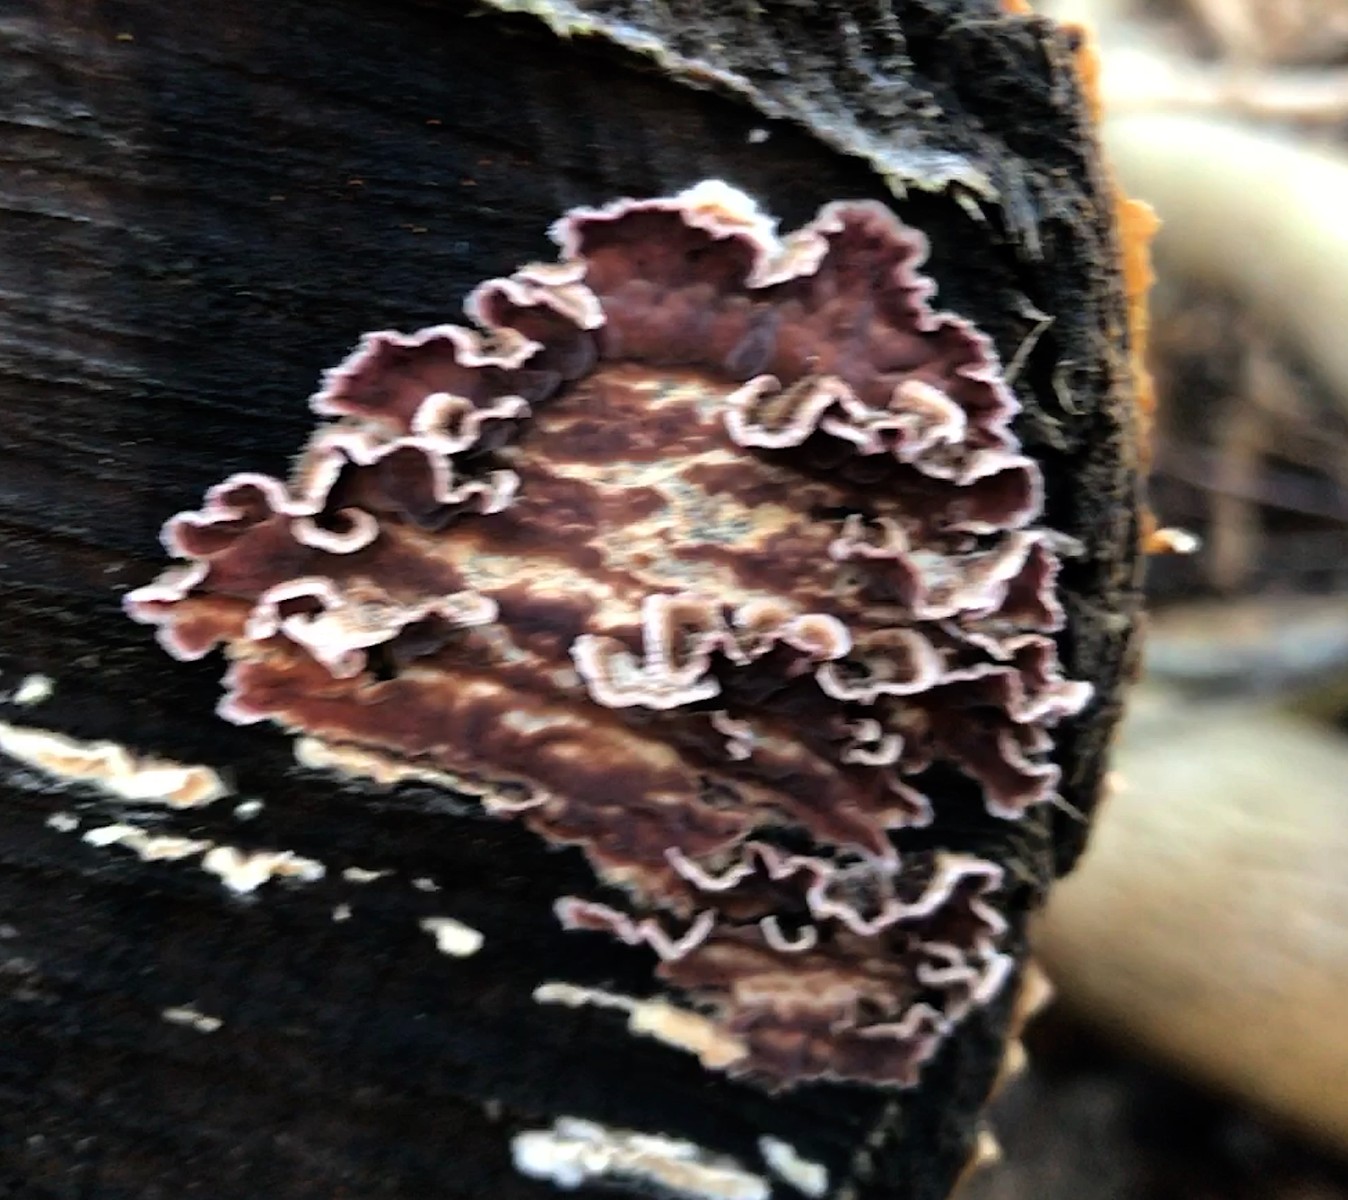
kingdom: Fungi
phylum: Basidiomycota
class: Agaricomycetes
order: Agaricales
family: Cyphellaceae
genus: Chondrostereum
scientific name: Chondrostereum purpureum
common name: purpurlædersvamp
